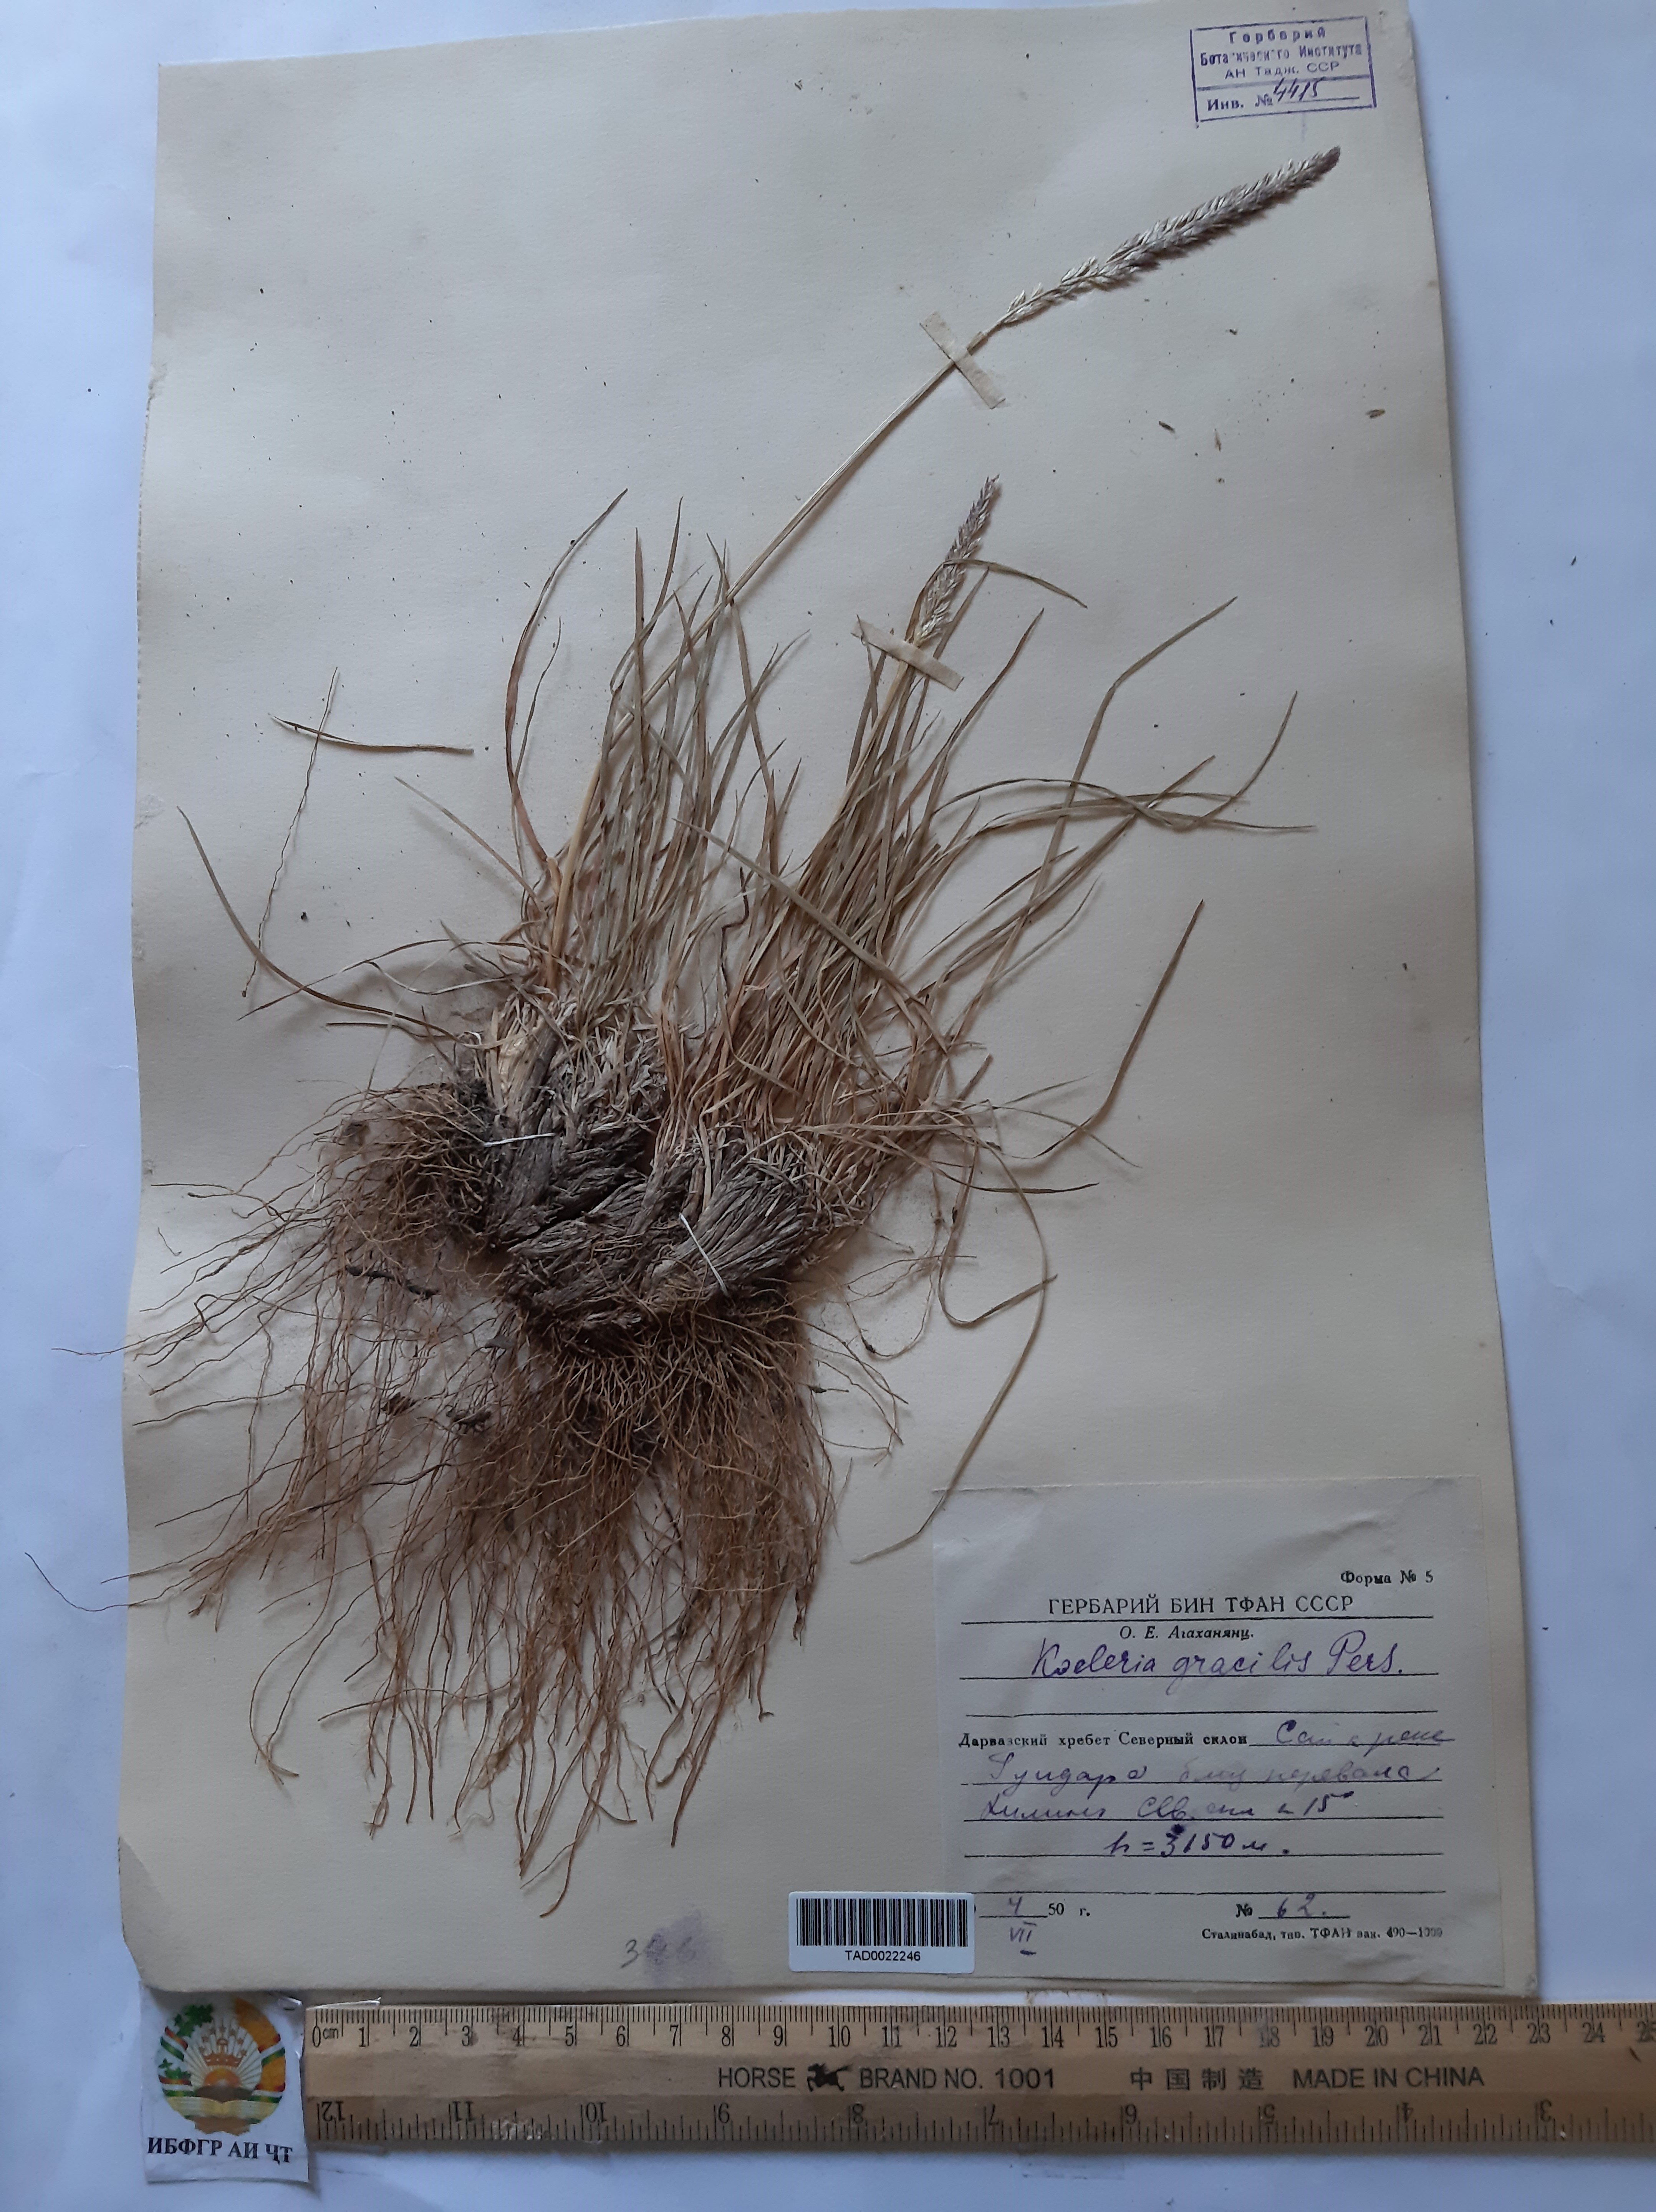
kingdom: Plantae
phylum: Tracheophyta
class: Liliopsida
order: Poales
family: Poaceae
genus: Koeleria
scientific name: Koeleria macrantha
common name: Crested hair-grass
